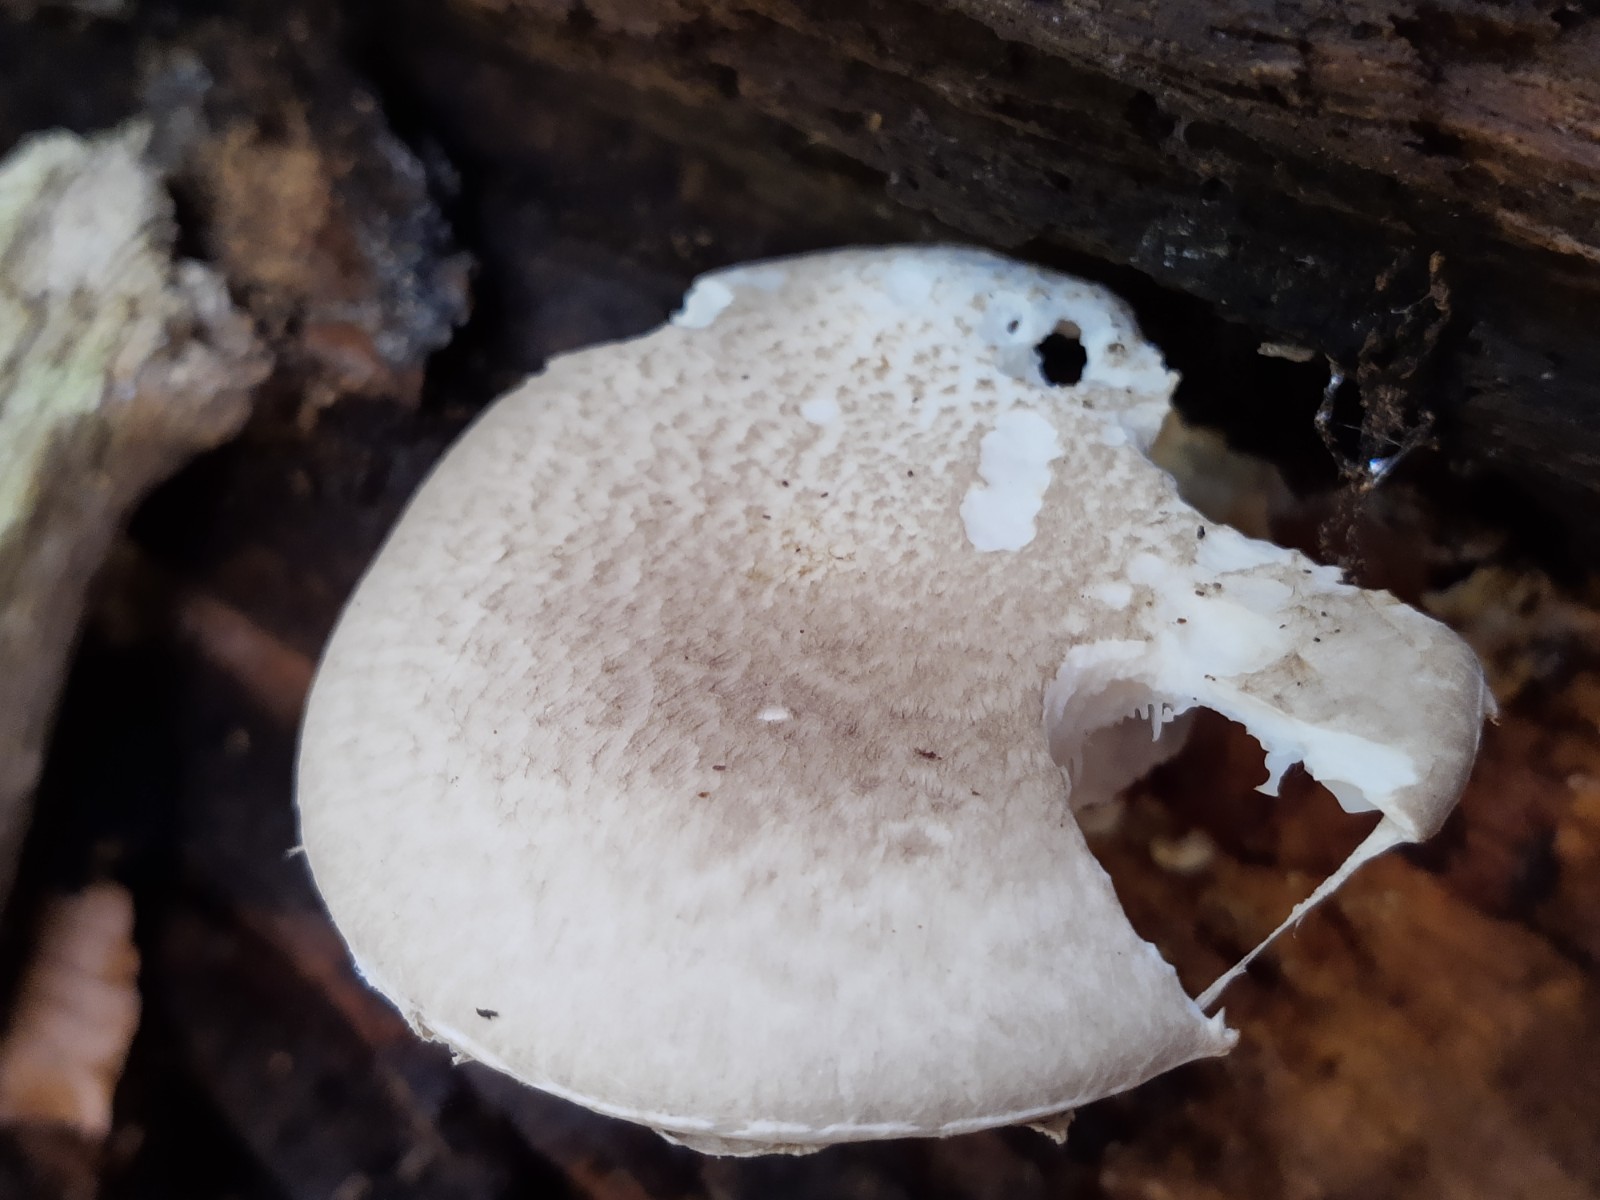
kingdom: Fungi
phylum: Basidiomycota
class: Agaricomycetes
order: Agaricales
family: Pleurotaceae
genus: Pleurotus
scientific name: Pleurotus dryinus
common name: korkagtig østershat
